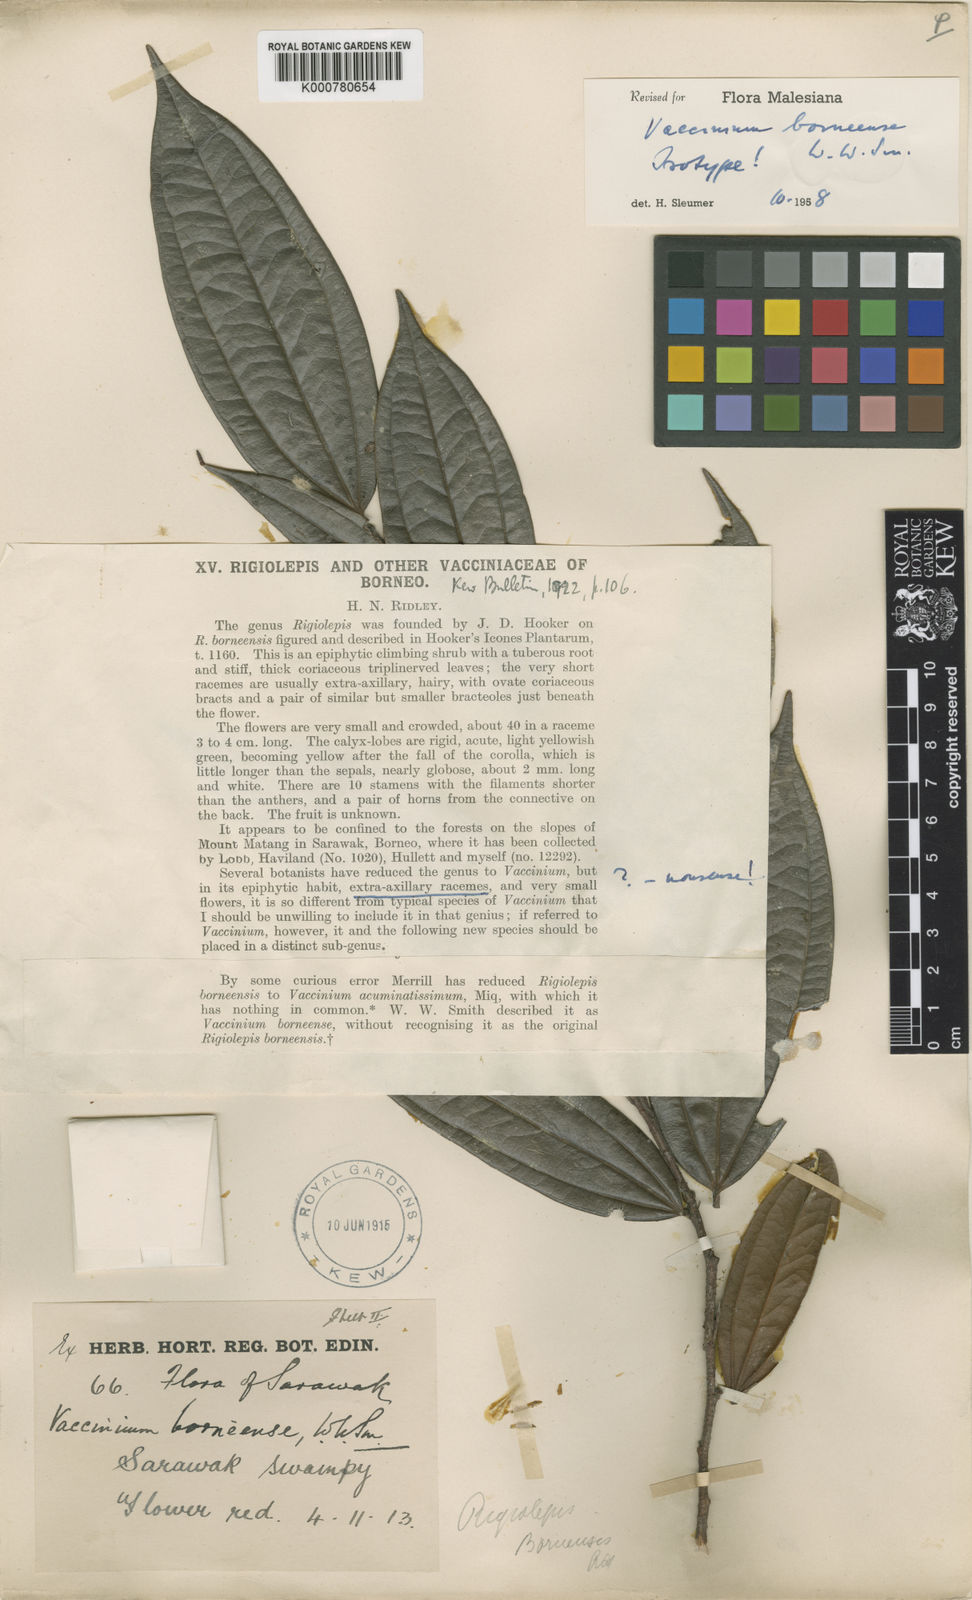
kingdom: Plantae
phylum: Tracheophyta
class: Magnoliopsida
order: Ericales
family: Ericaceae
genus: Rigiolepis
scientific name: Rigiolepis borneensis
